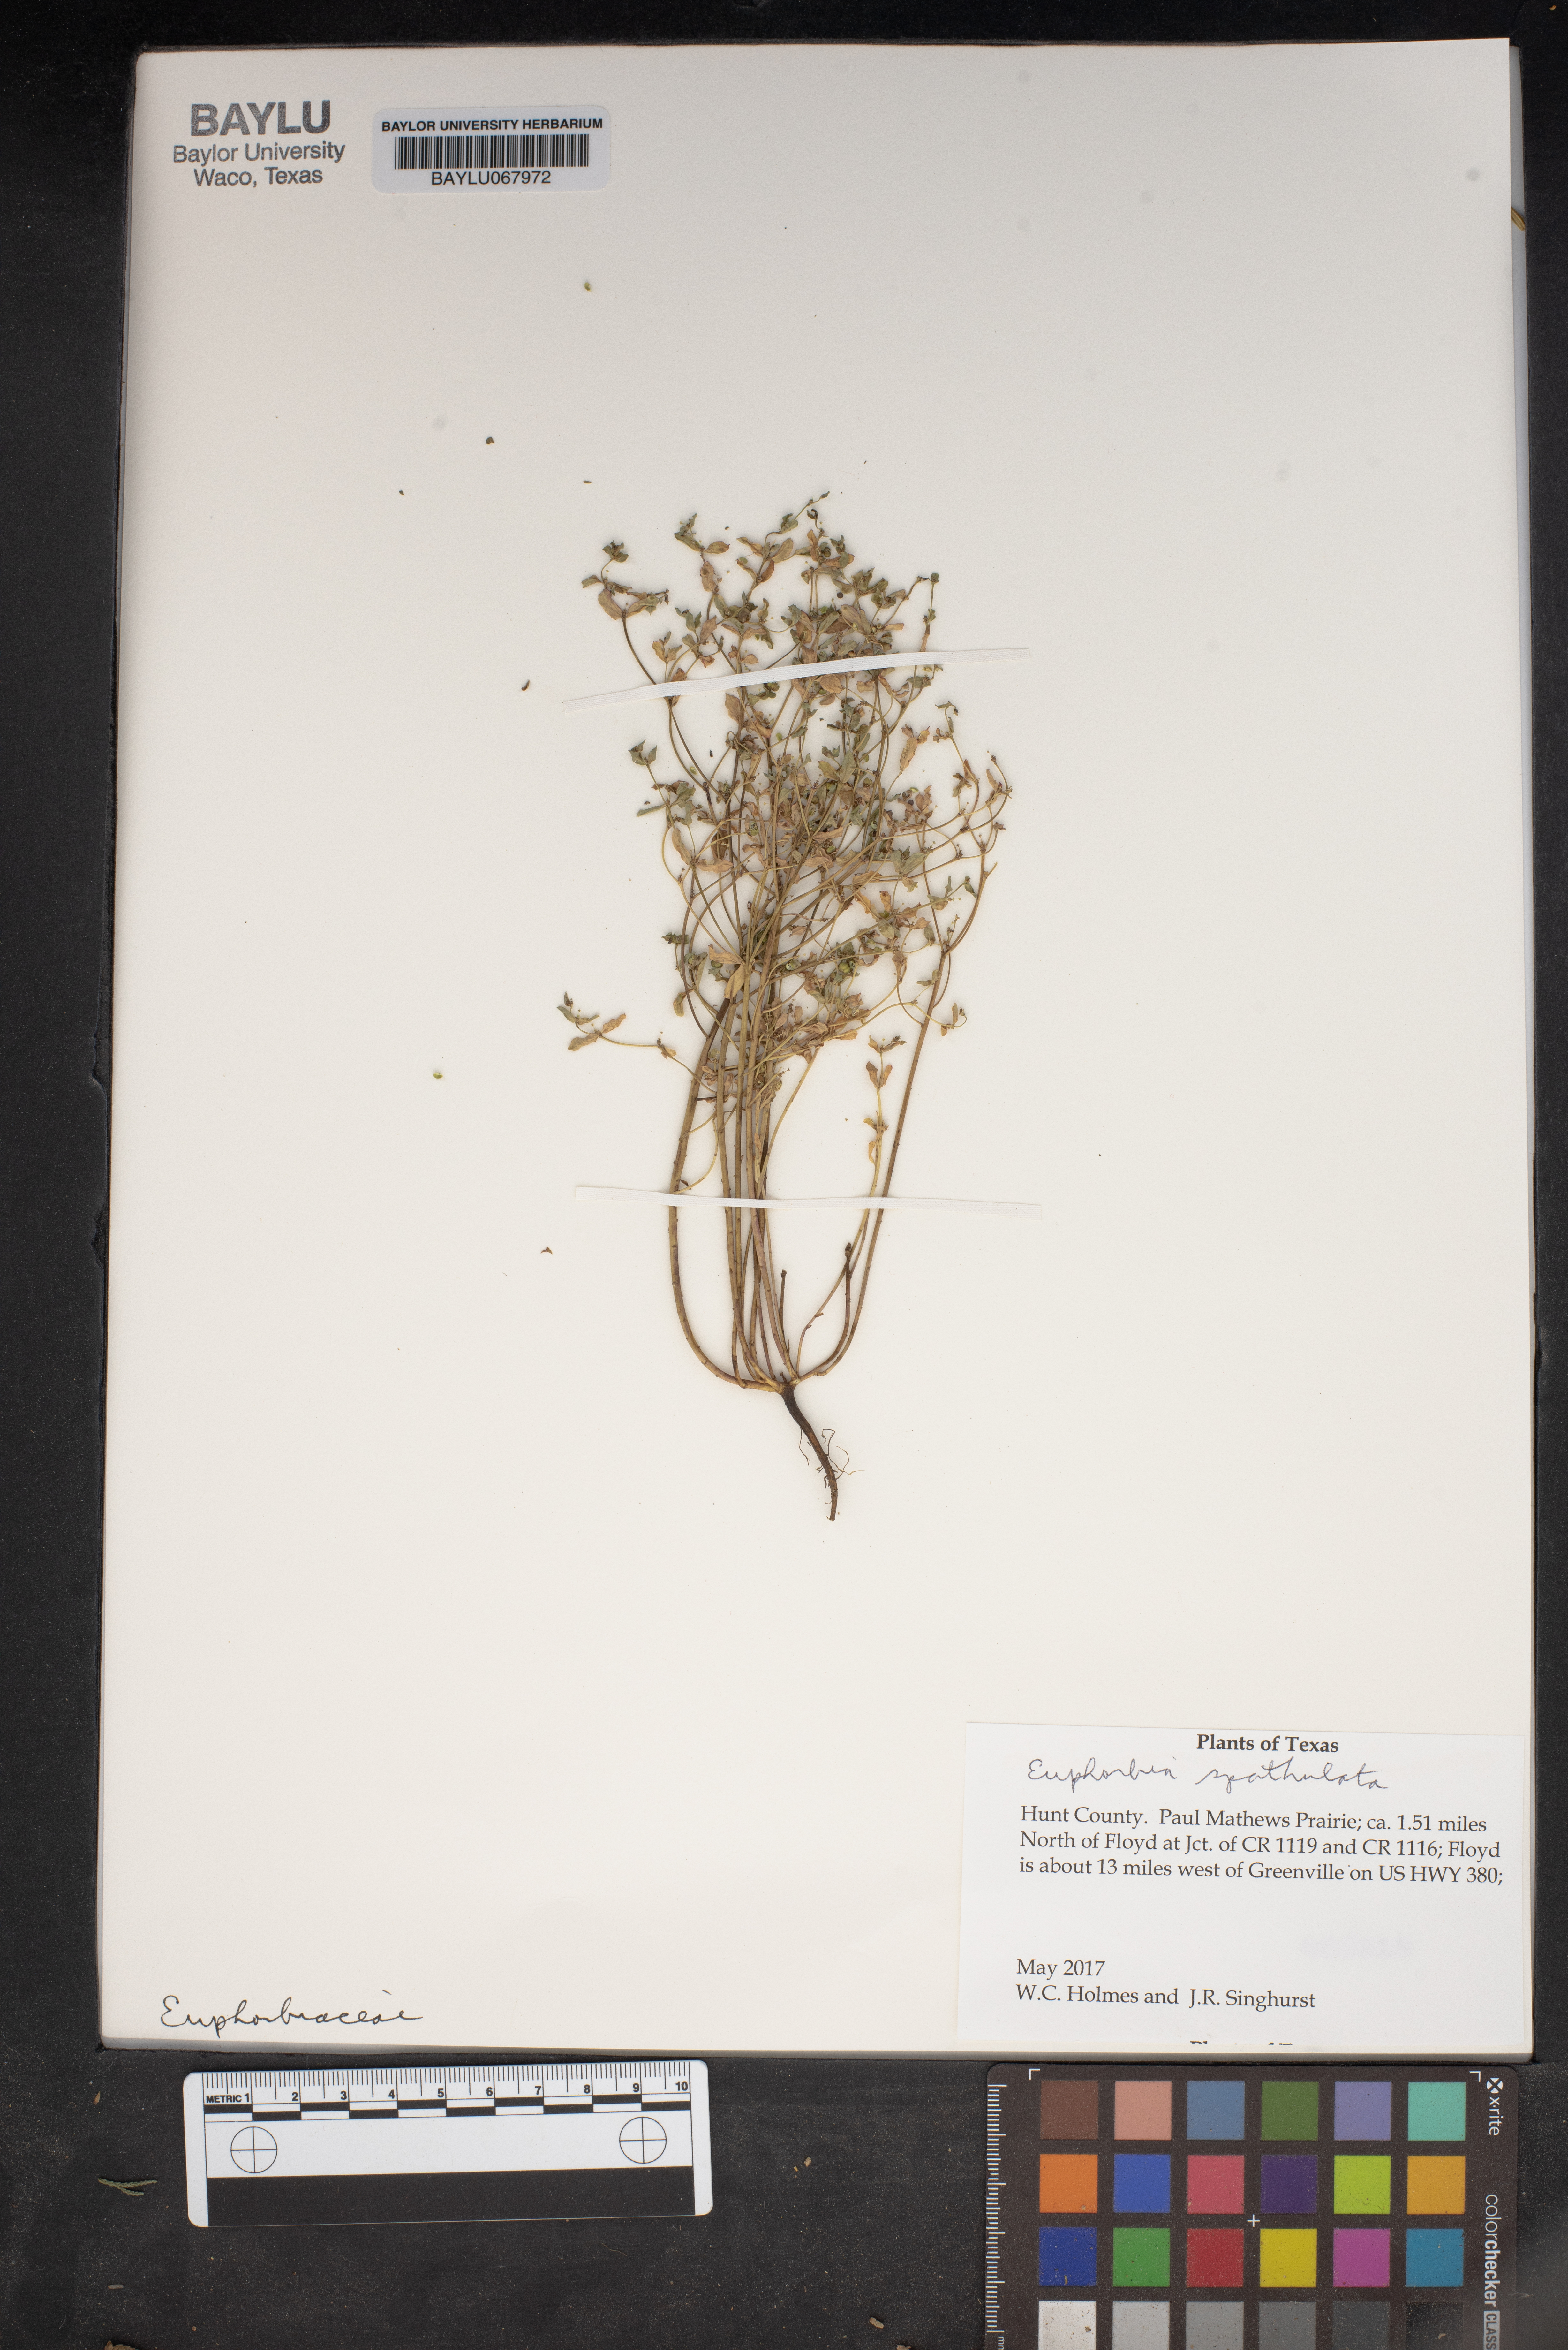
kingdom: Plantae
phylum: Tracheophyta
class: Magnoliopsida
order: Malpighiales
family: Euphorbiaceae
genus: Euphorbia
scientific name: Euphorbia spathulata
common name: Blunt spurge
